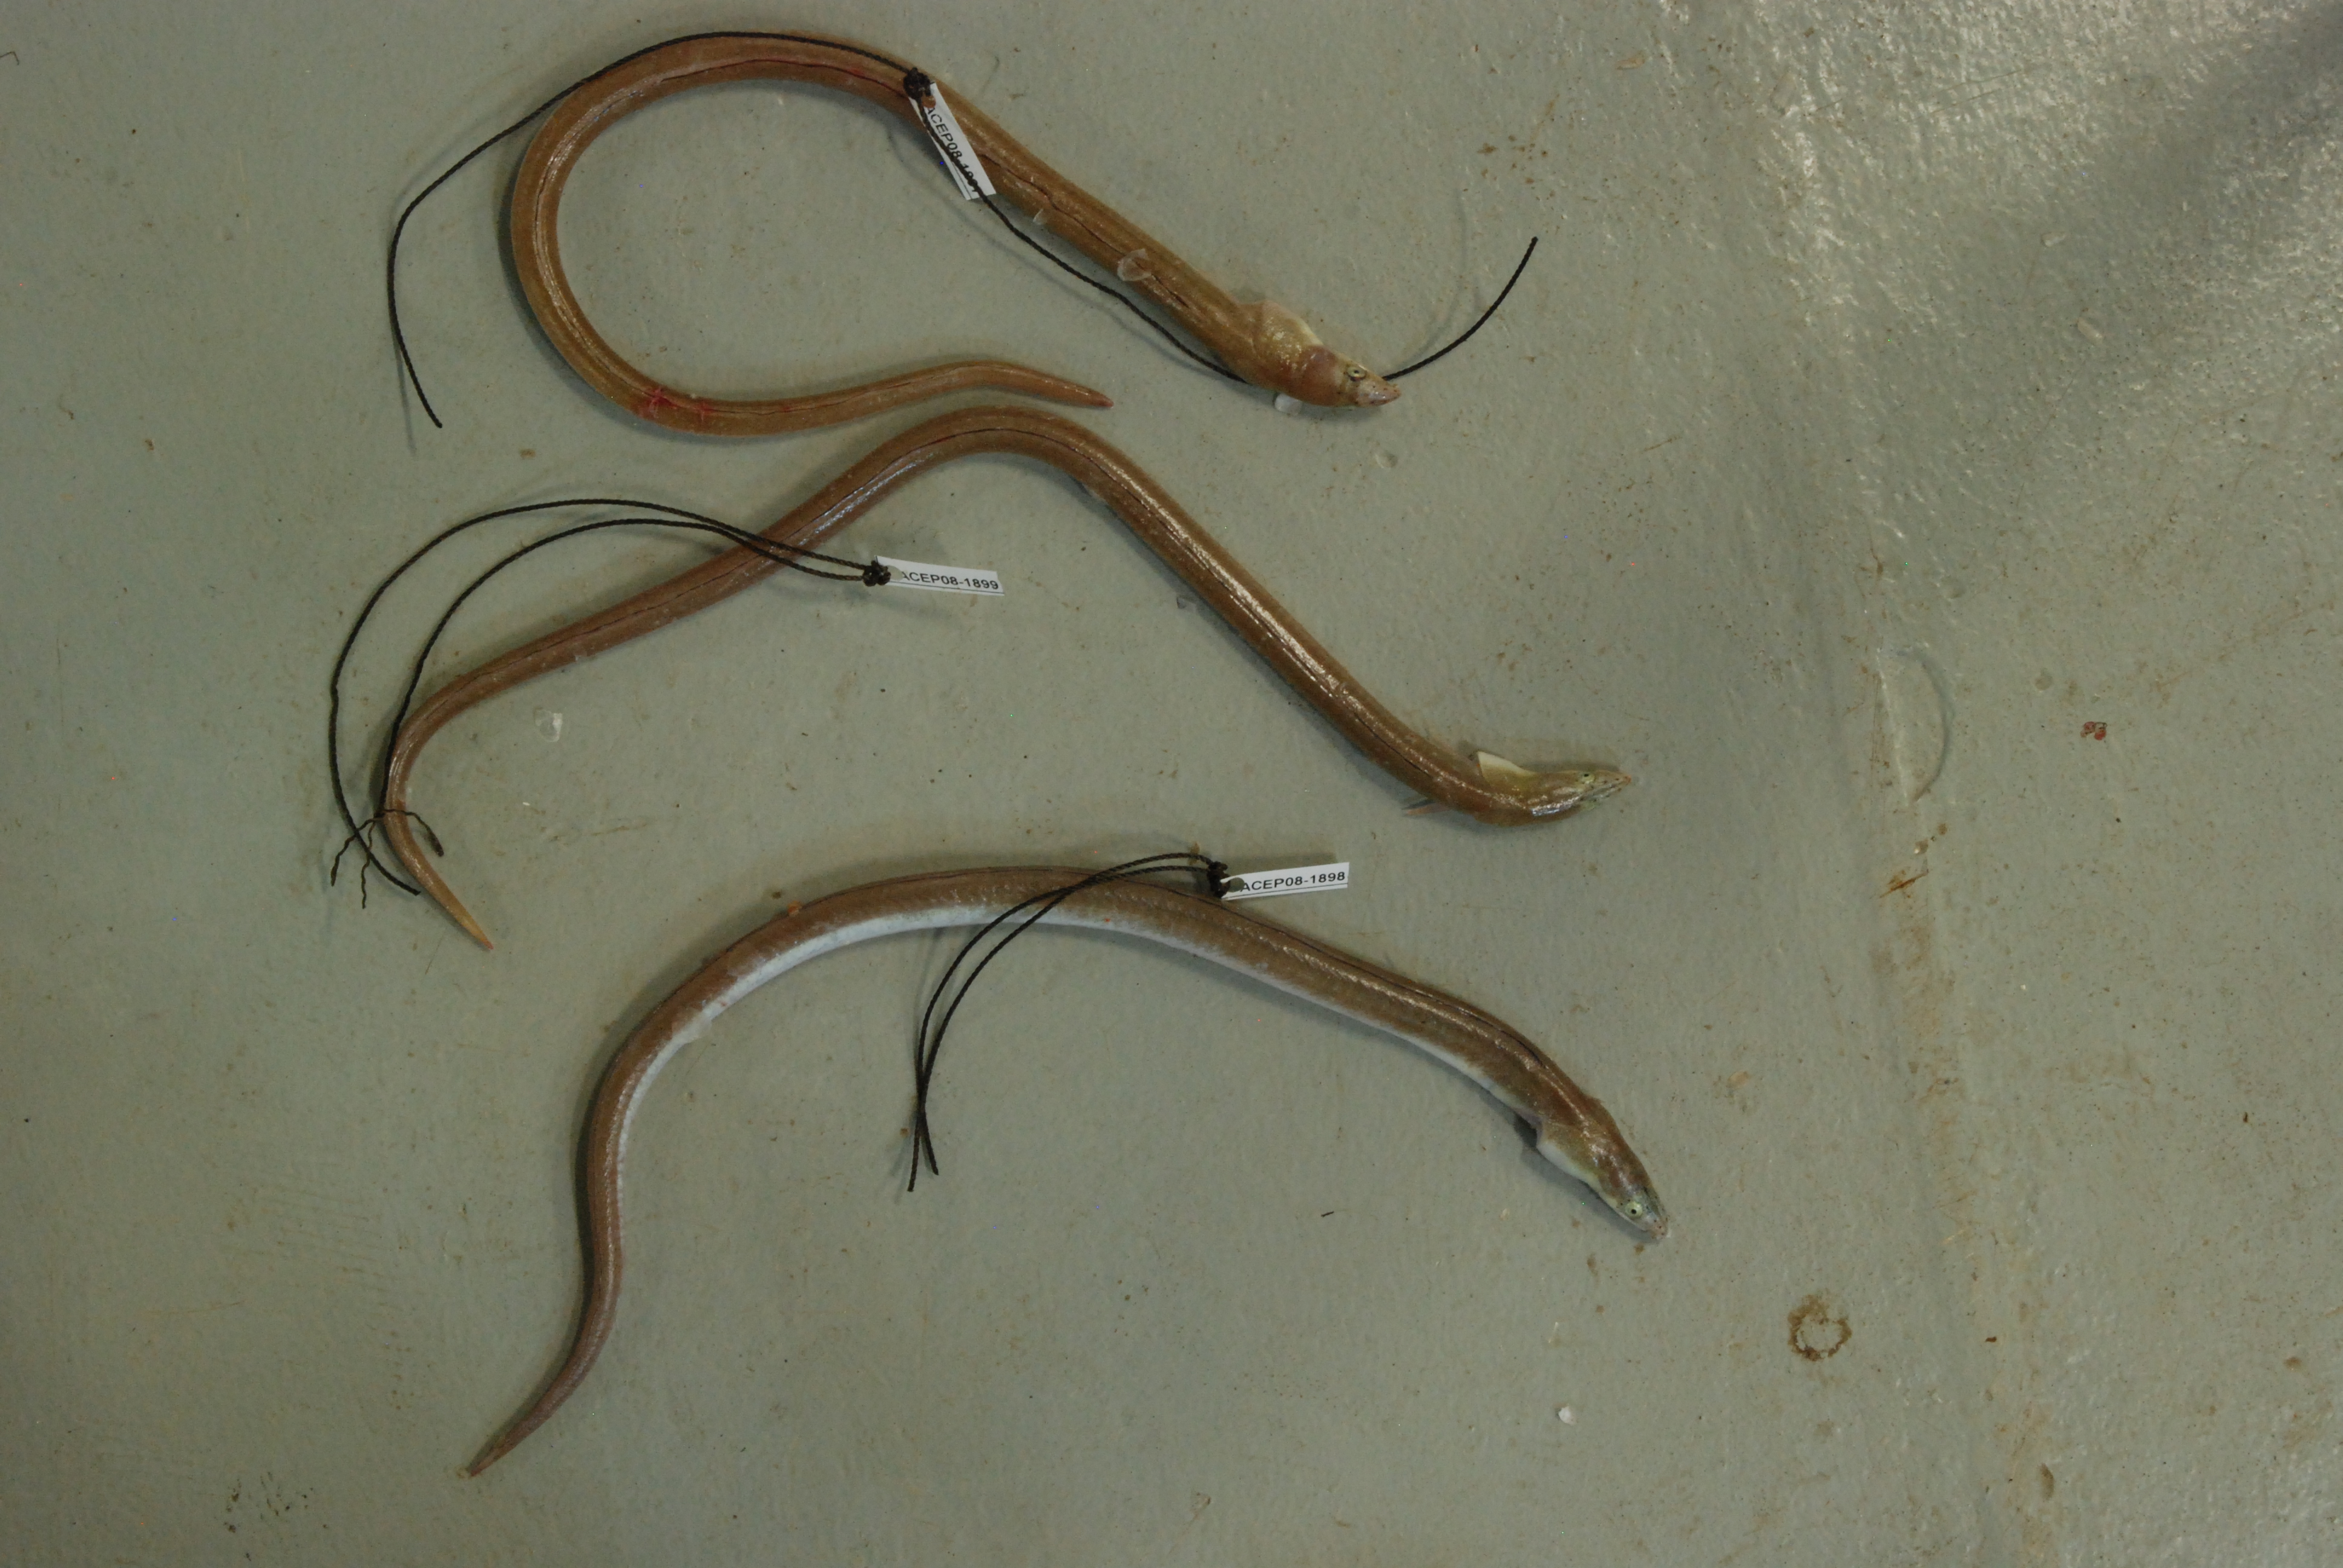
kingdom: Animalia
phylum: Chordata
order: Anguilliformes
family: Ophichthidae
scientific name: Ophichthidae
